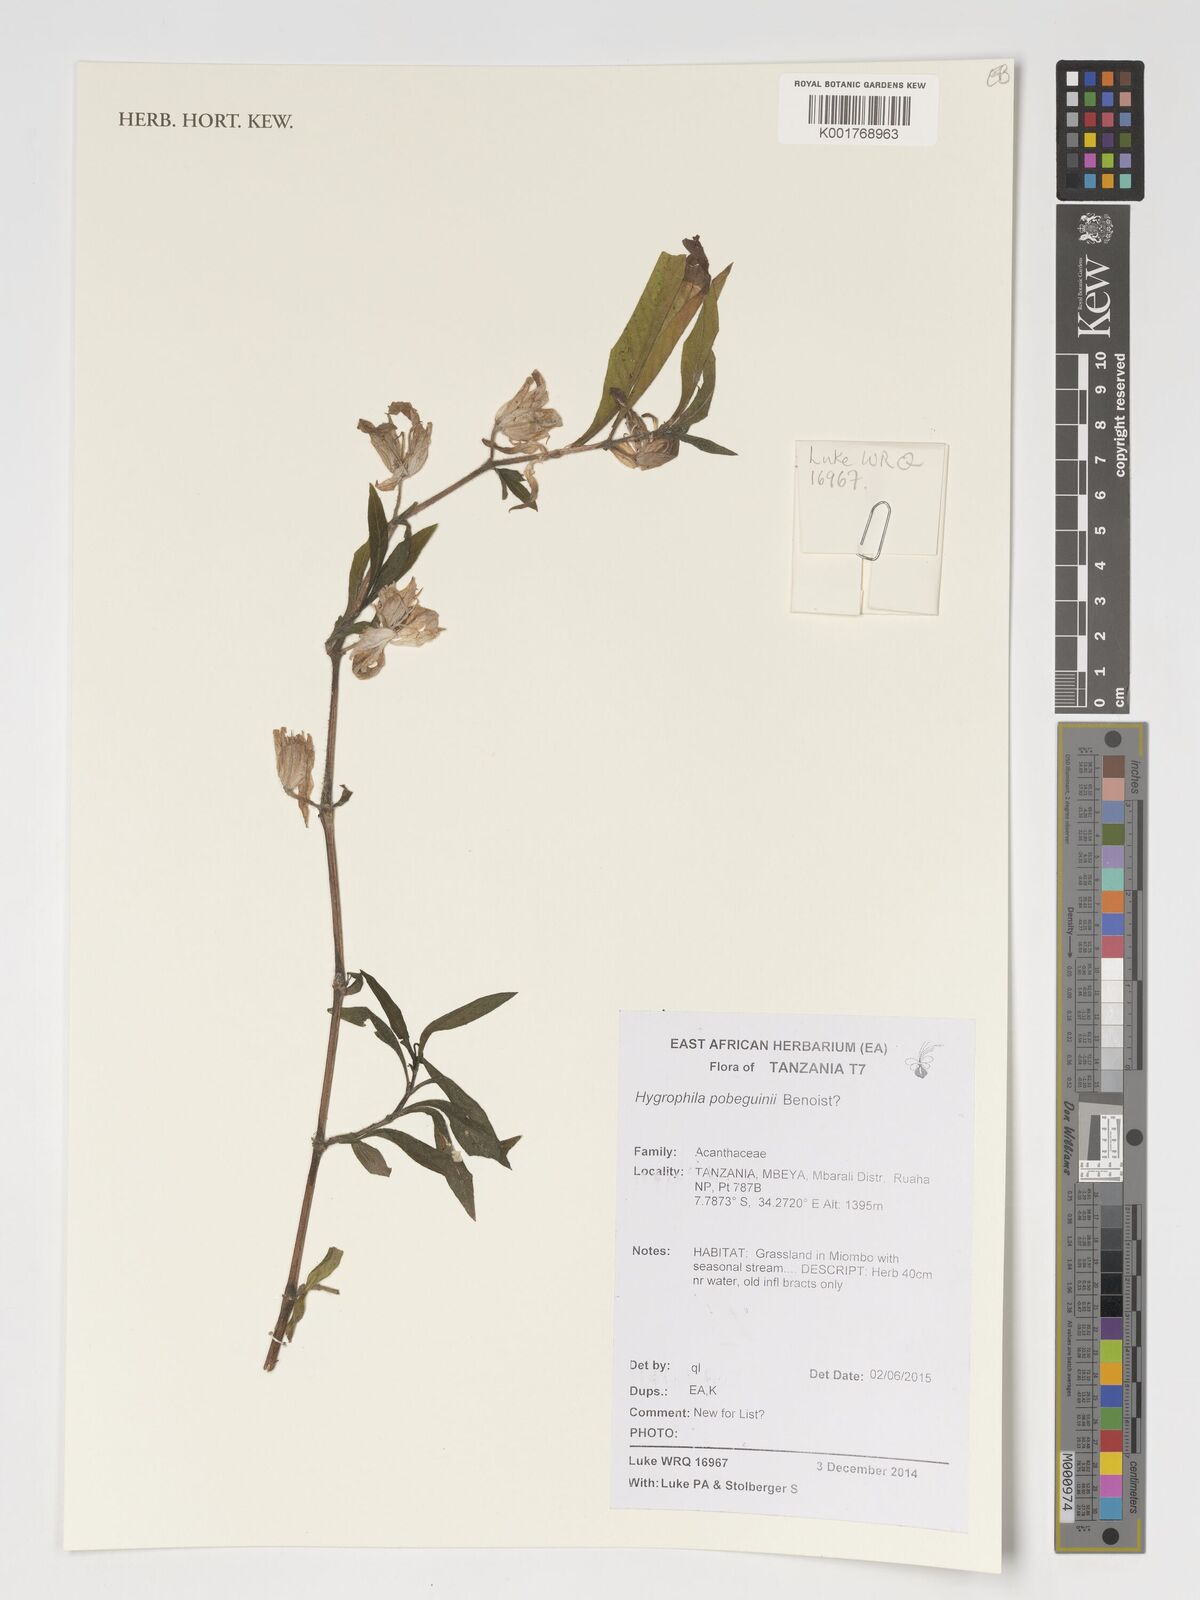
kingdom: Plantae
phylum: Tracheophyta
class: Magnoliopsida
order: Lamiales
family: Acanthaceae
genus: Hygrophila
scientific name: Hygrophila pobeguinii
